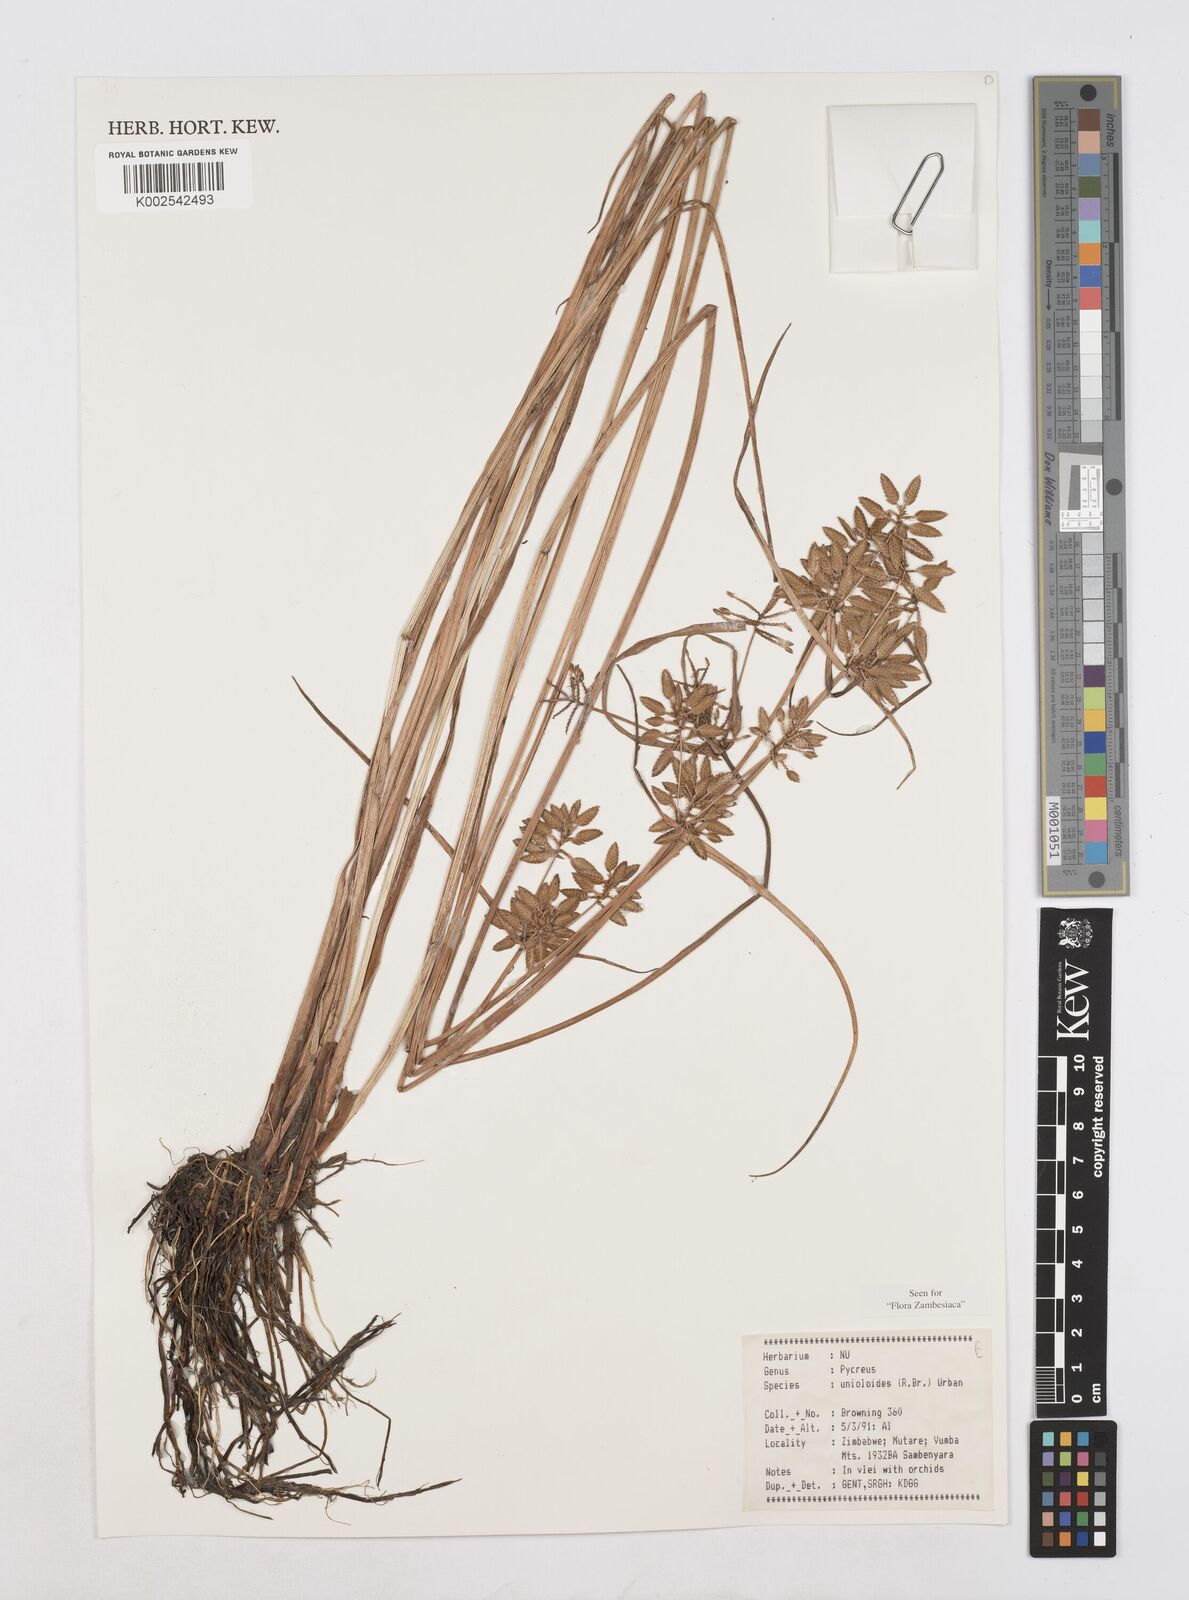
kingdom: Plantae
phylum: Tracheophyta
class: Liliopsida
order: Poales
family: Cyperaceae
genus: Cyperus
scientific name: Cyperus unioloides
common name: Uniola flatsedge
